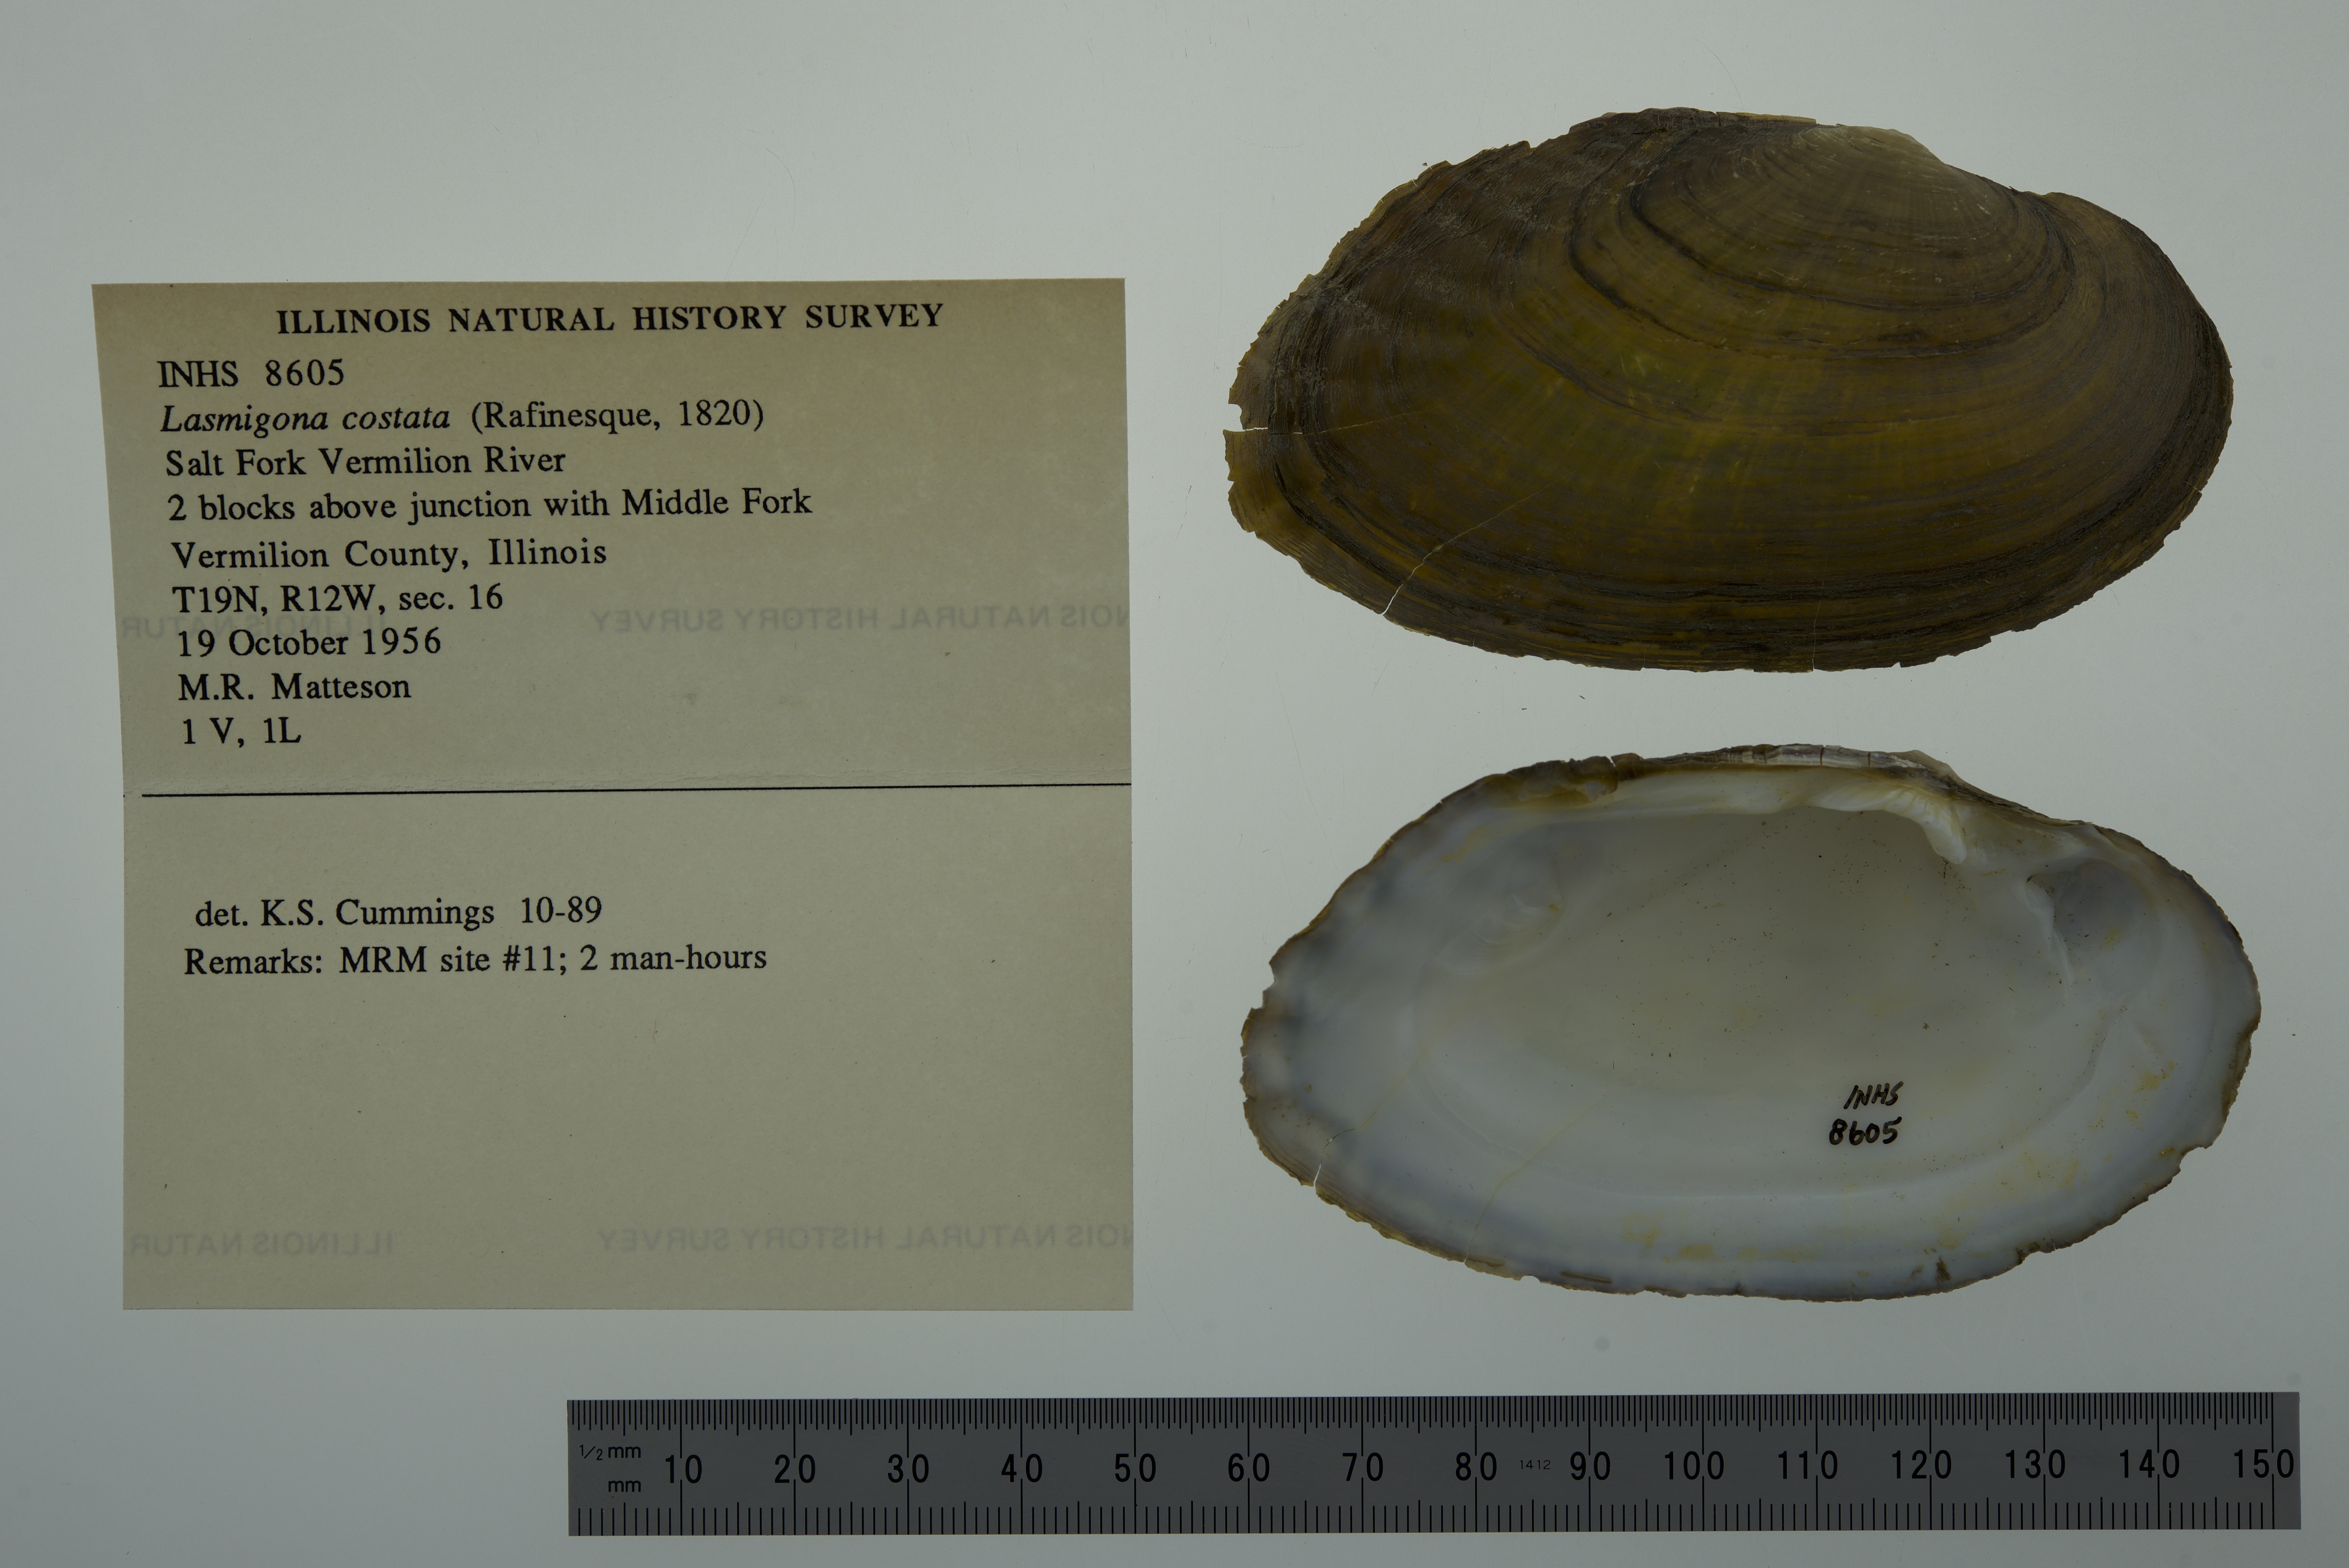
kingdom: Animalia
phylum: Mollusca
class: Bivalvia
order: Unionida
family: Unionidae
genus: Lasmigona
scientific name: Lasmigona costata
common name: Flutedshell
